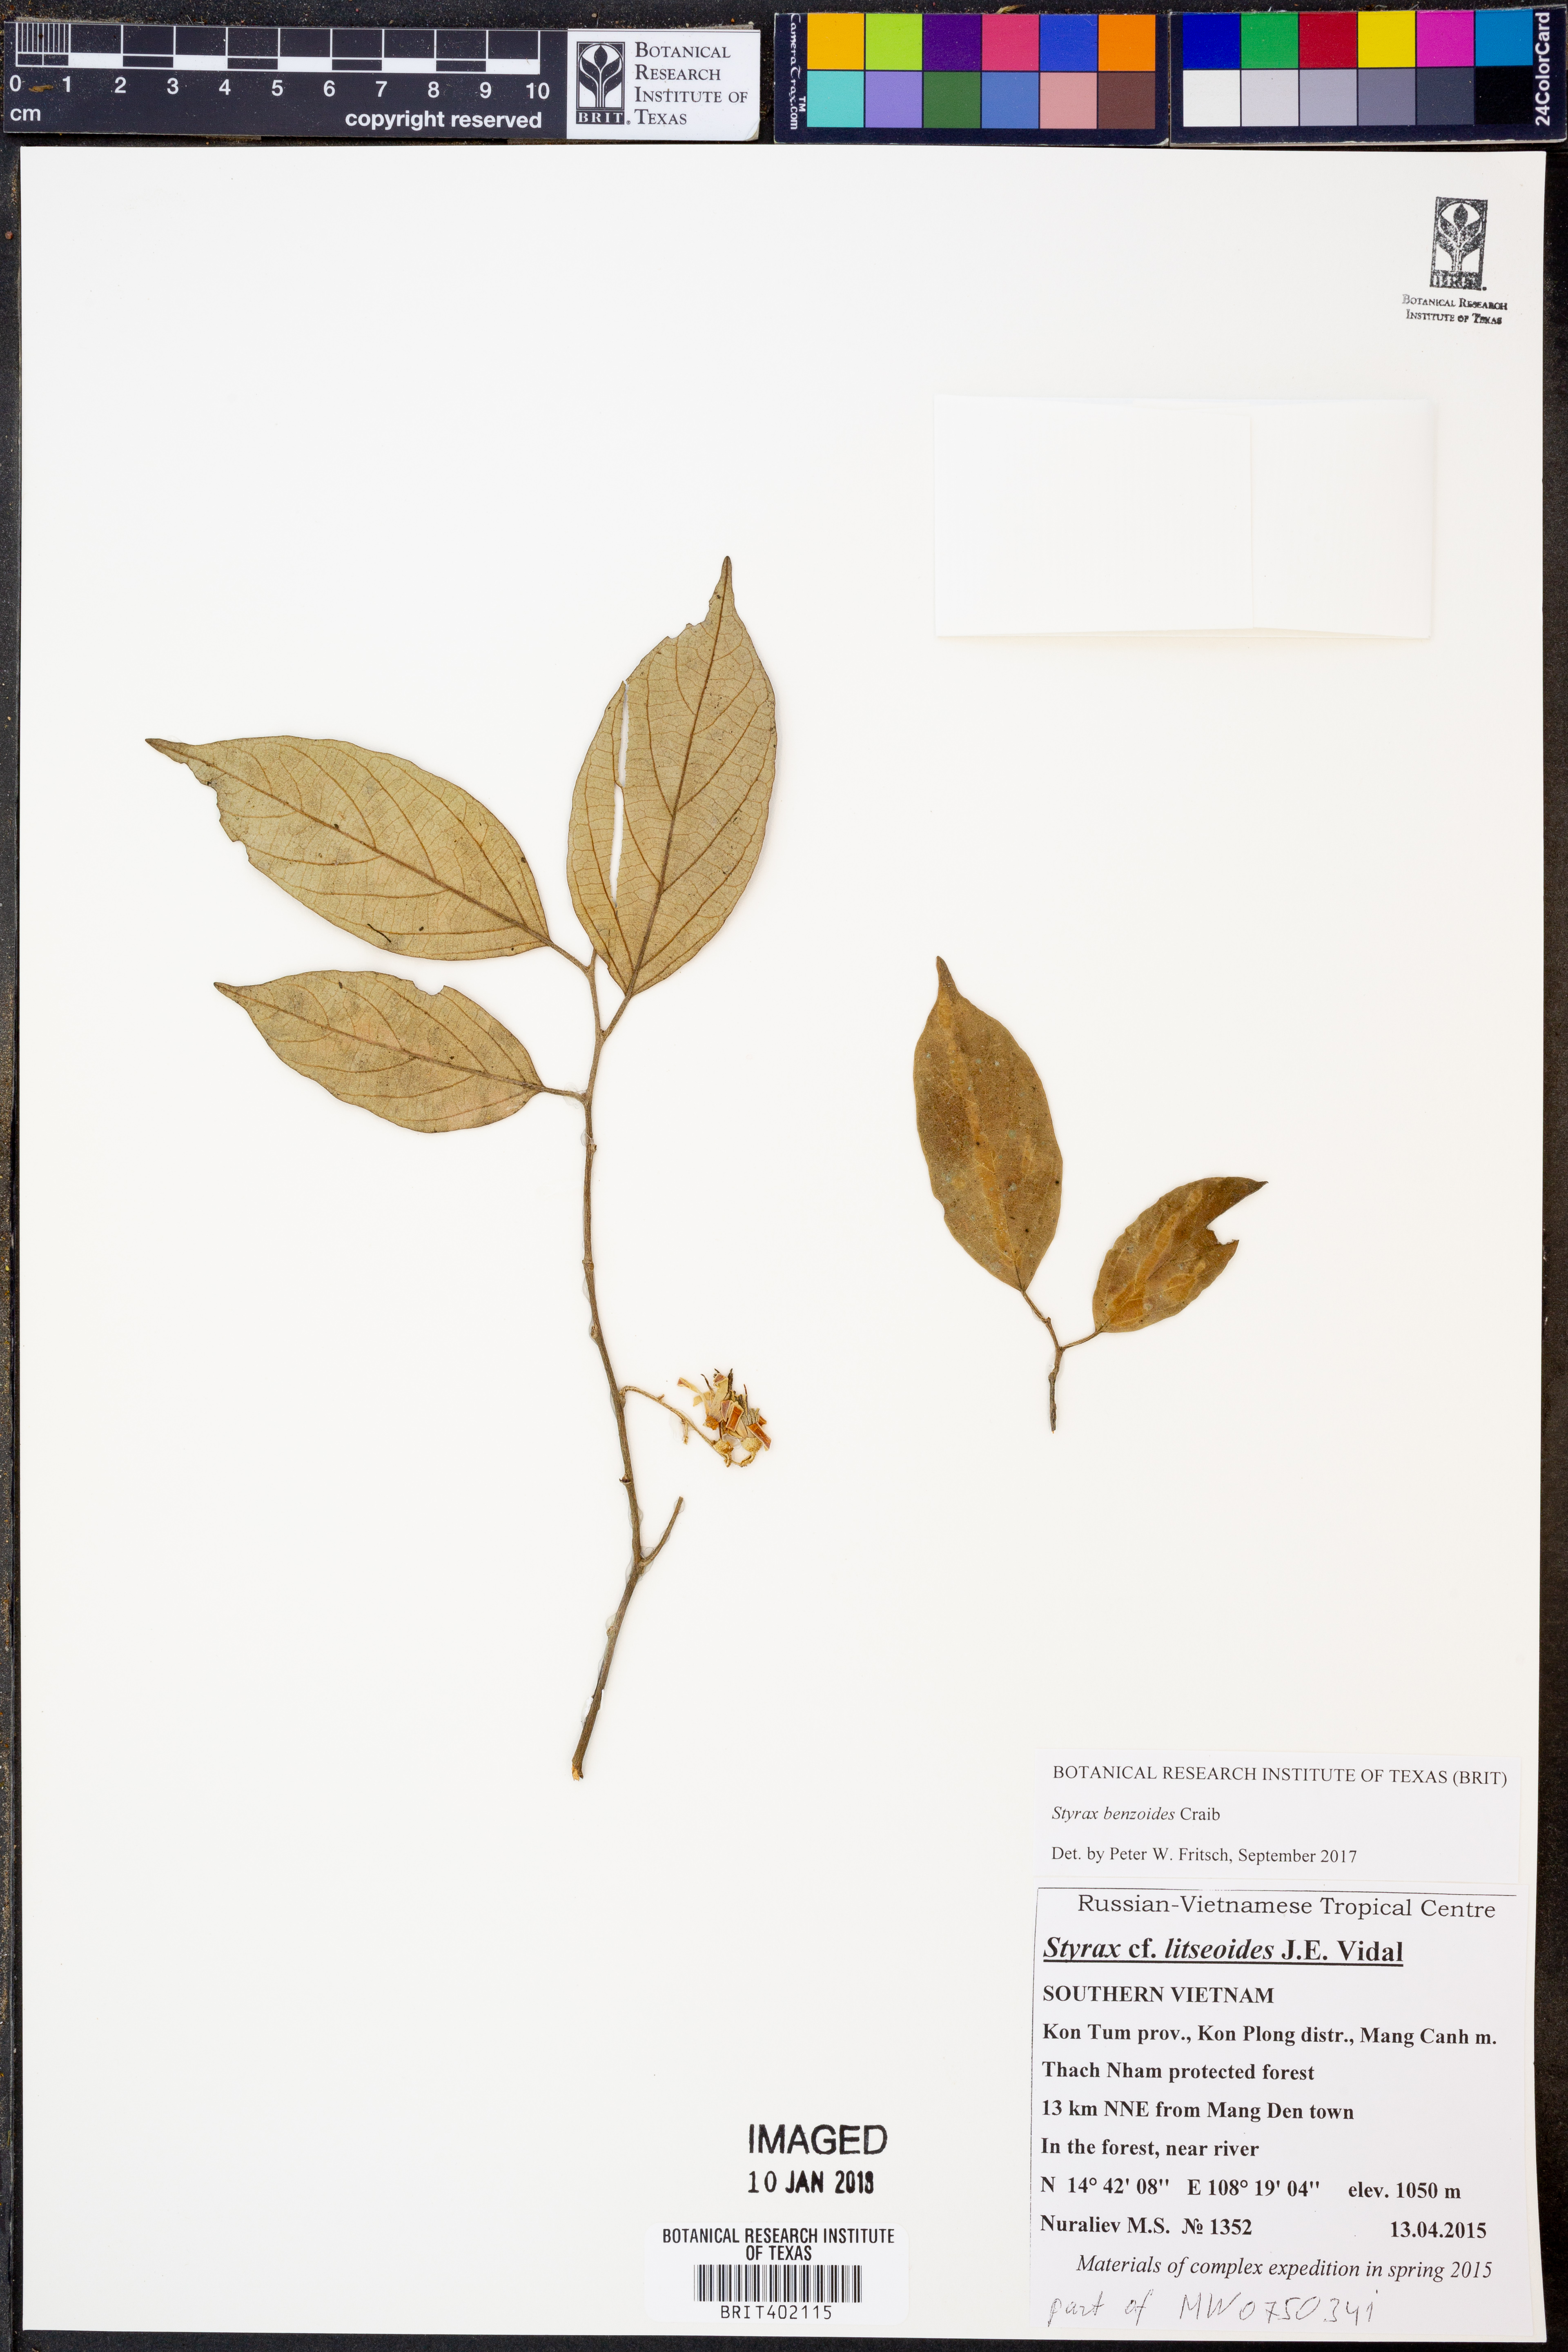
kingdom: Plantae
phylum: Tracheophyta
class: Magnoliopsida
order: Ericales
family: Styracaceae
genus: Styrax
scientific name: Styrax benzoides
